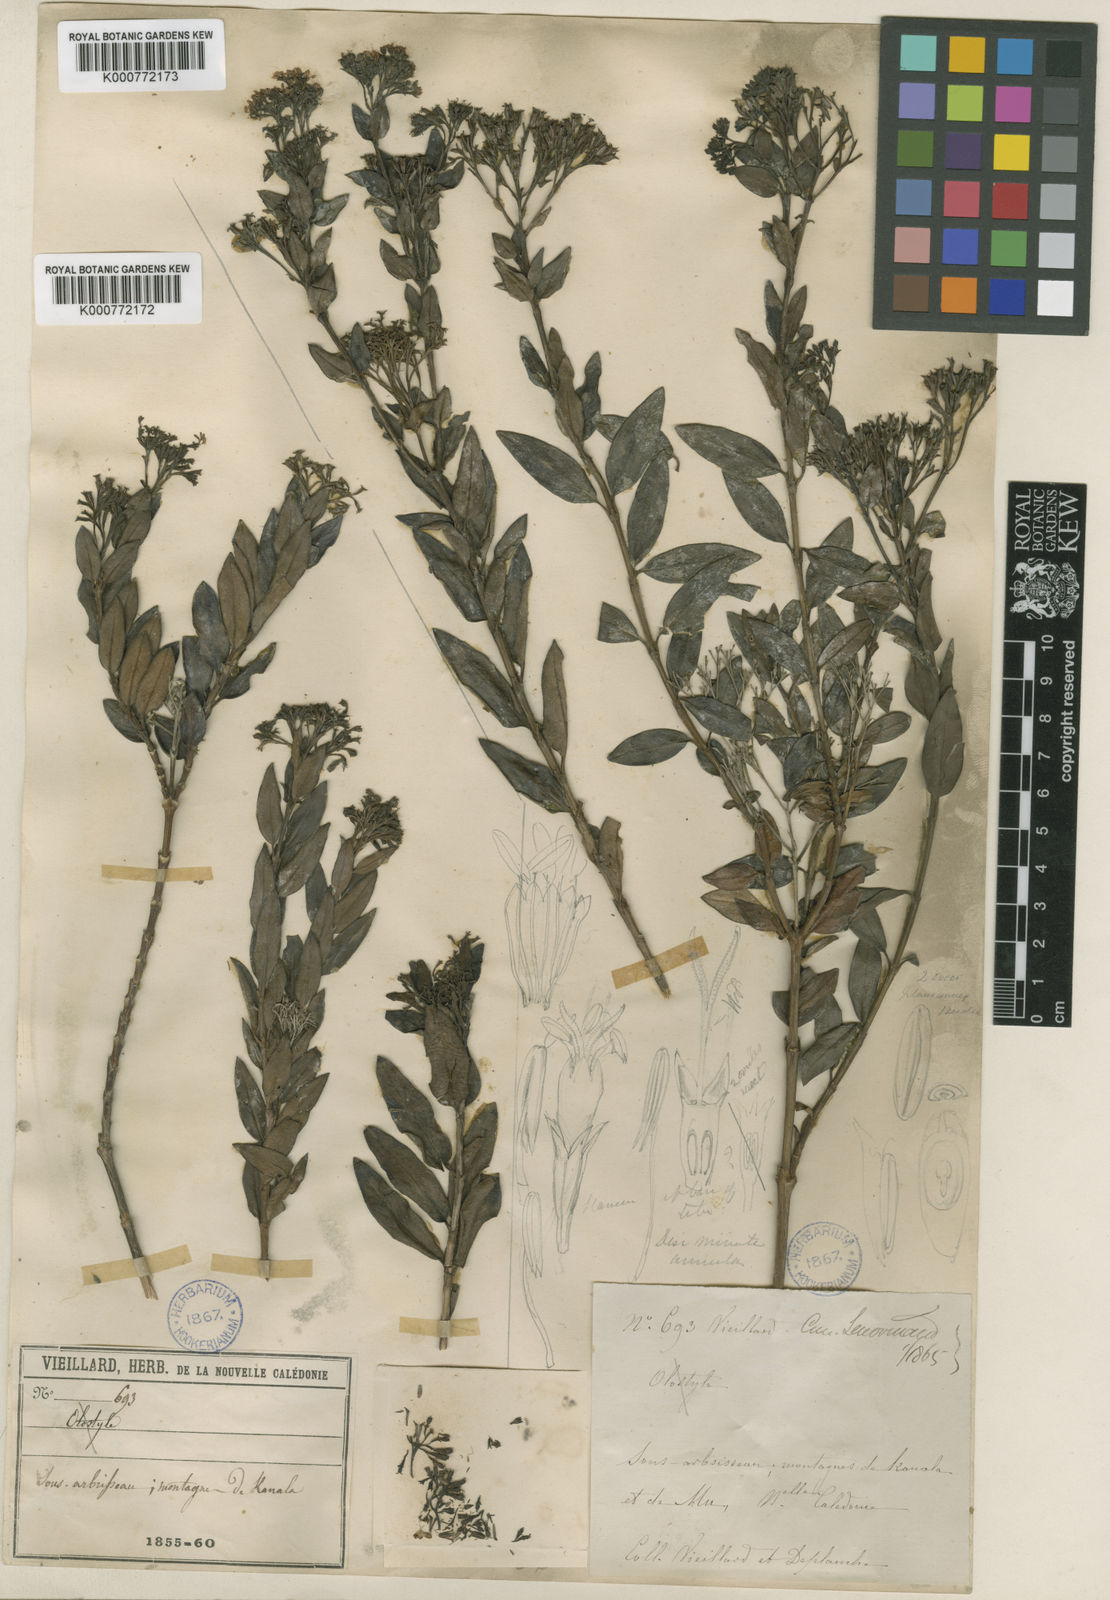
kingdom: Plantae
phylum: Tracheophyta
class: Magnoliopsida
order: Gentianales
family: Rubiaceae
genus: Normandia
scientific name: Normandia neocaledonica
